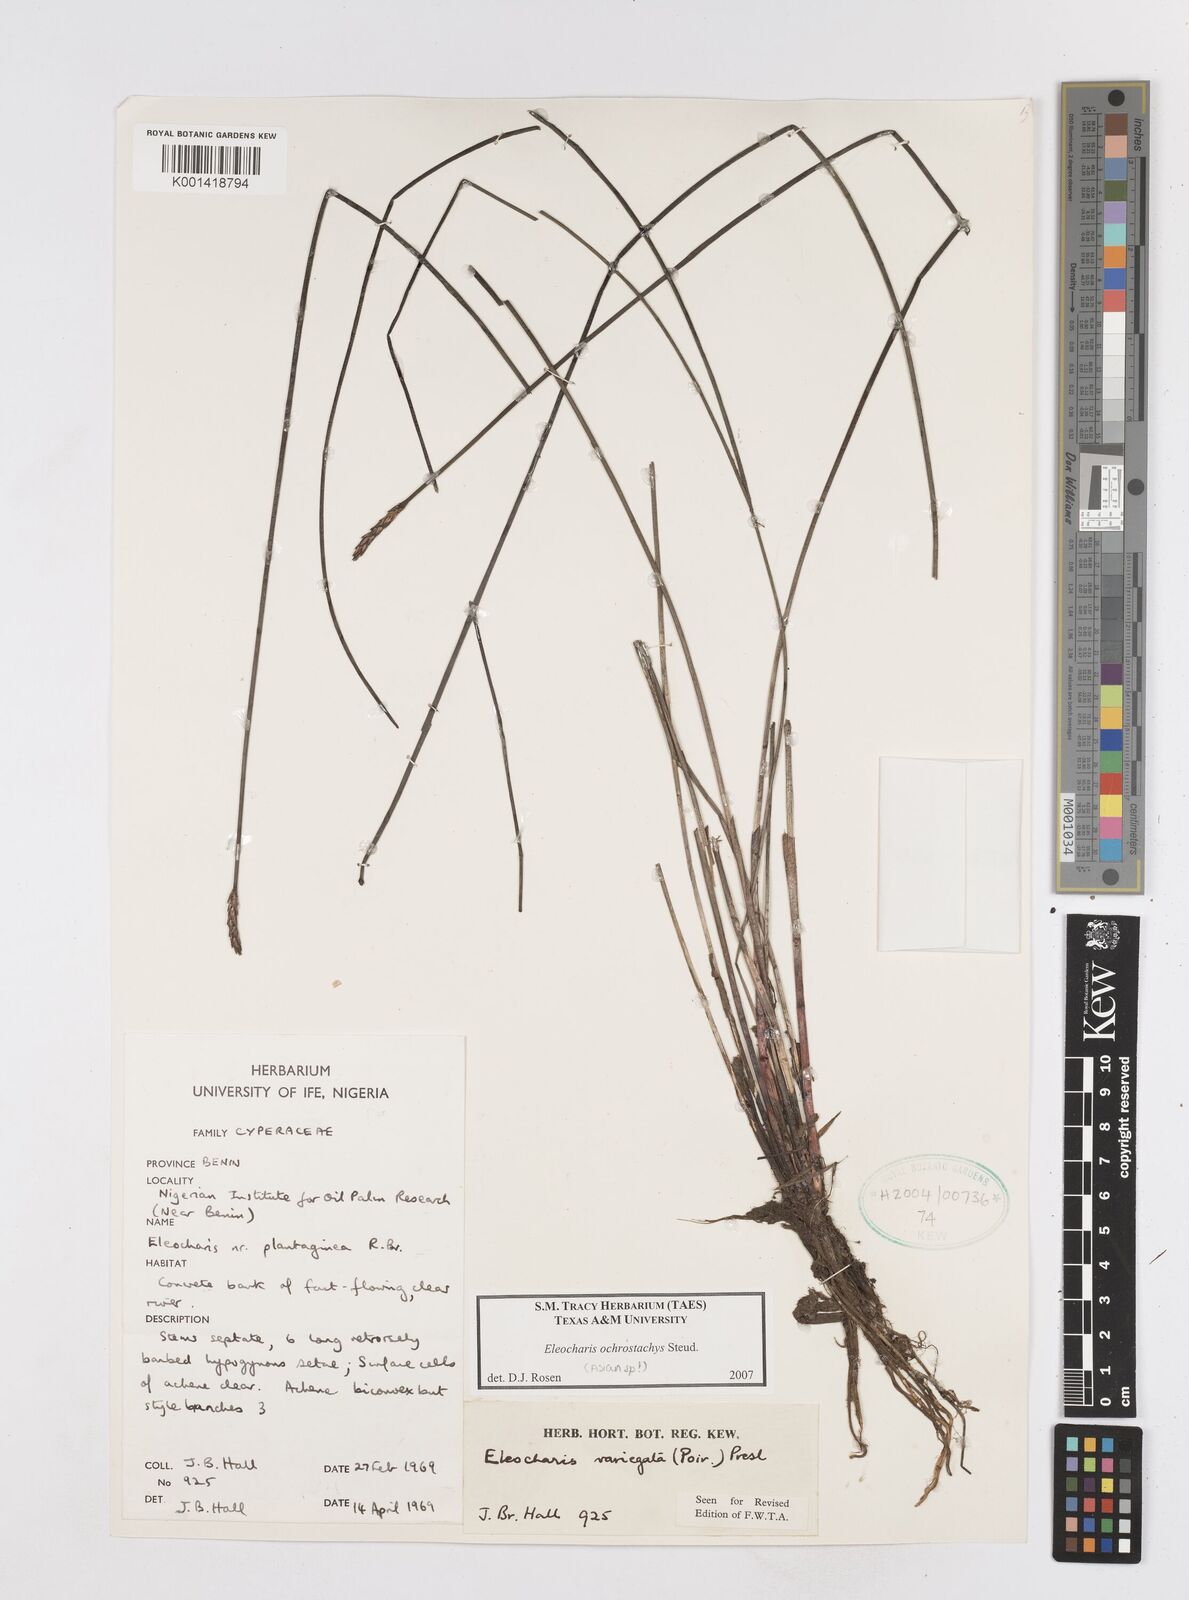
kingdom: Plantae
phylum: Tracheophyta
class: Liliopsida
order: Poales
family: Cyperaceae
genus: Eleocharis
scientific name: Eleocharis ochrostachys
